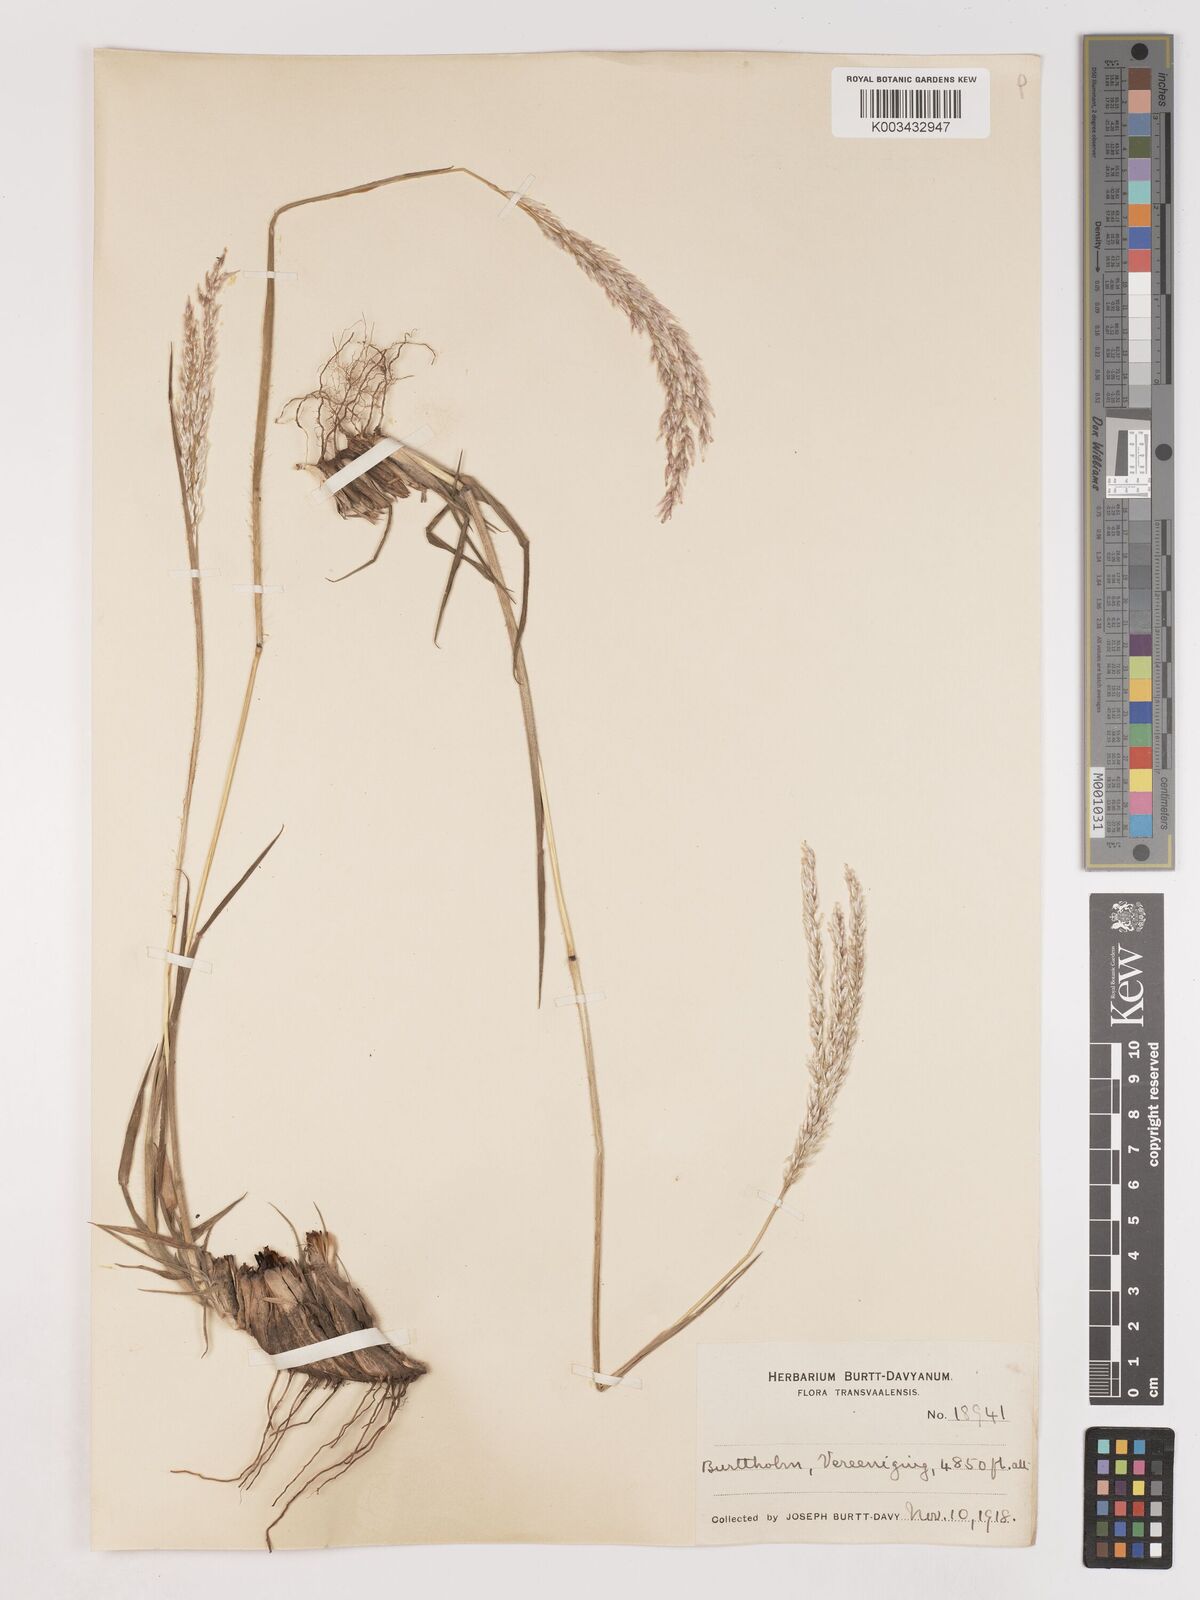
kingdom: Plantae
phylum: Tracheophyta
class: Liliopsida
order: Poales
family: Poaceae
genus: Digitaria
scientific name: Digitaria tricholaenoides
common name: Purple finger grass
